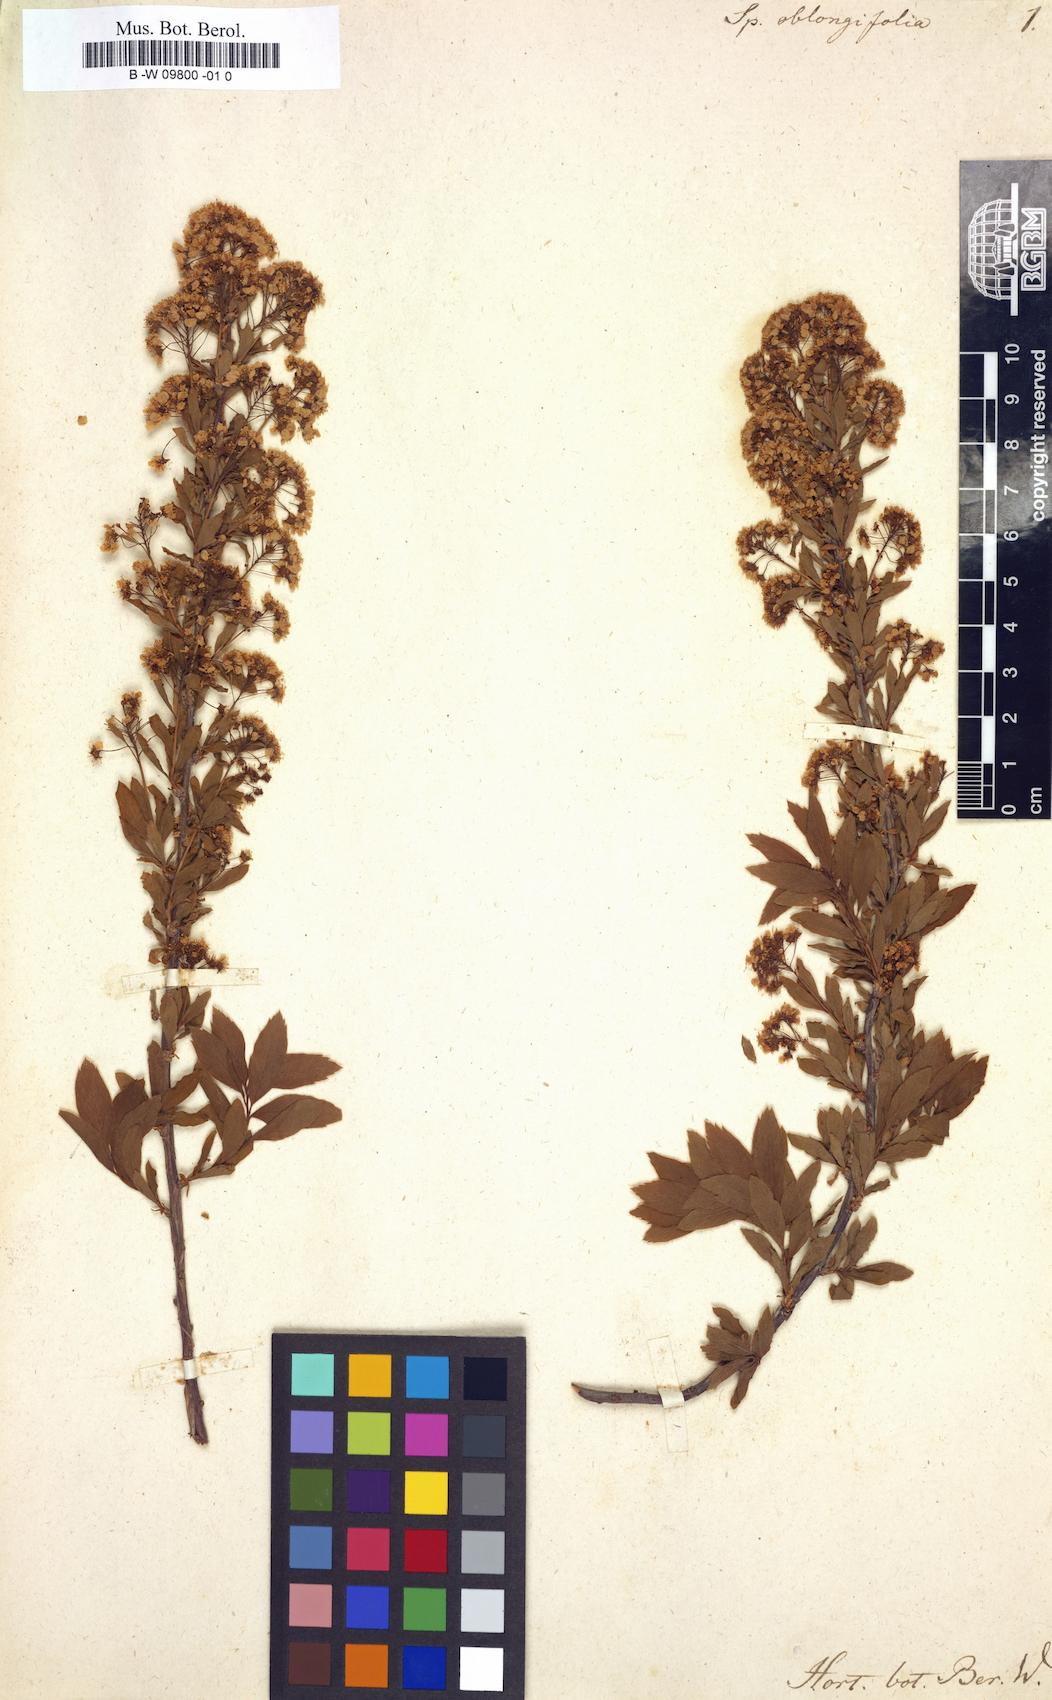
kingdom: Plantae
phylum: Tracheophyta
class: Magnoliopsida
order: Rosales
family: Rosaceae
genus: Spiraea
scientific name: Spiraea
